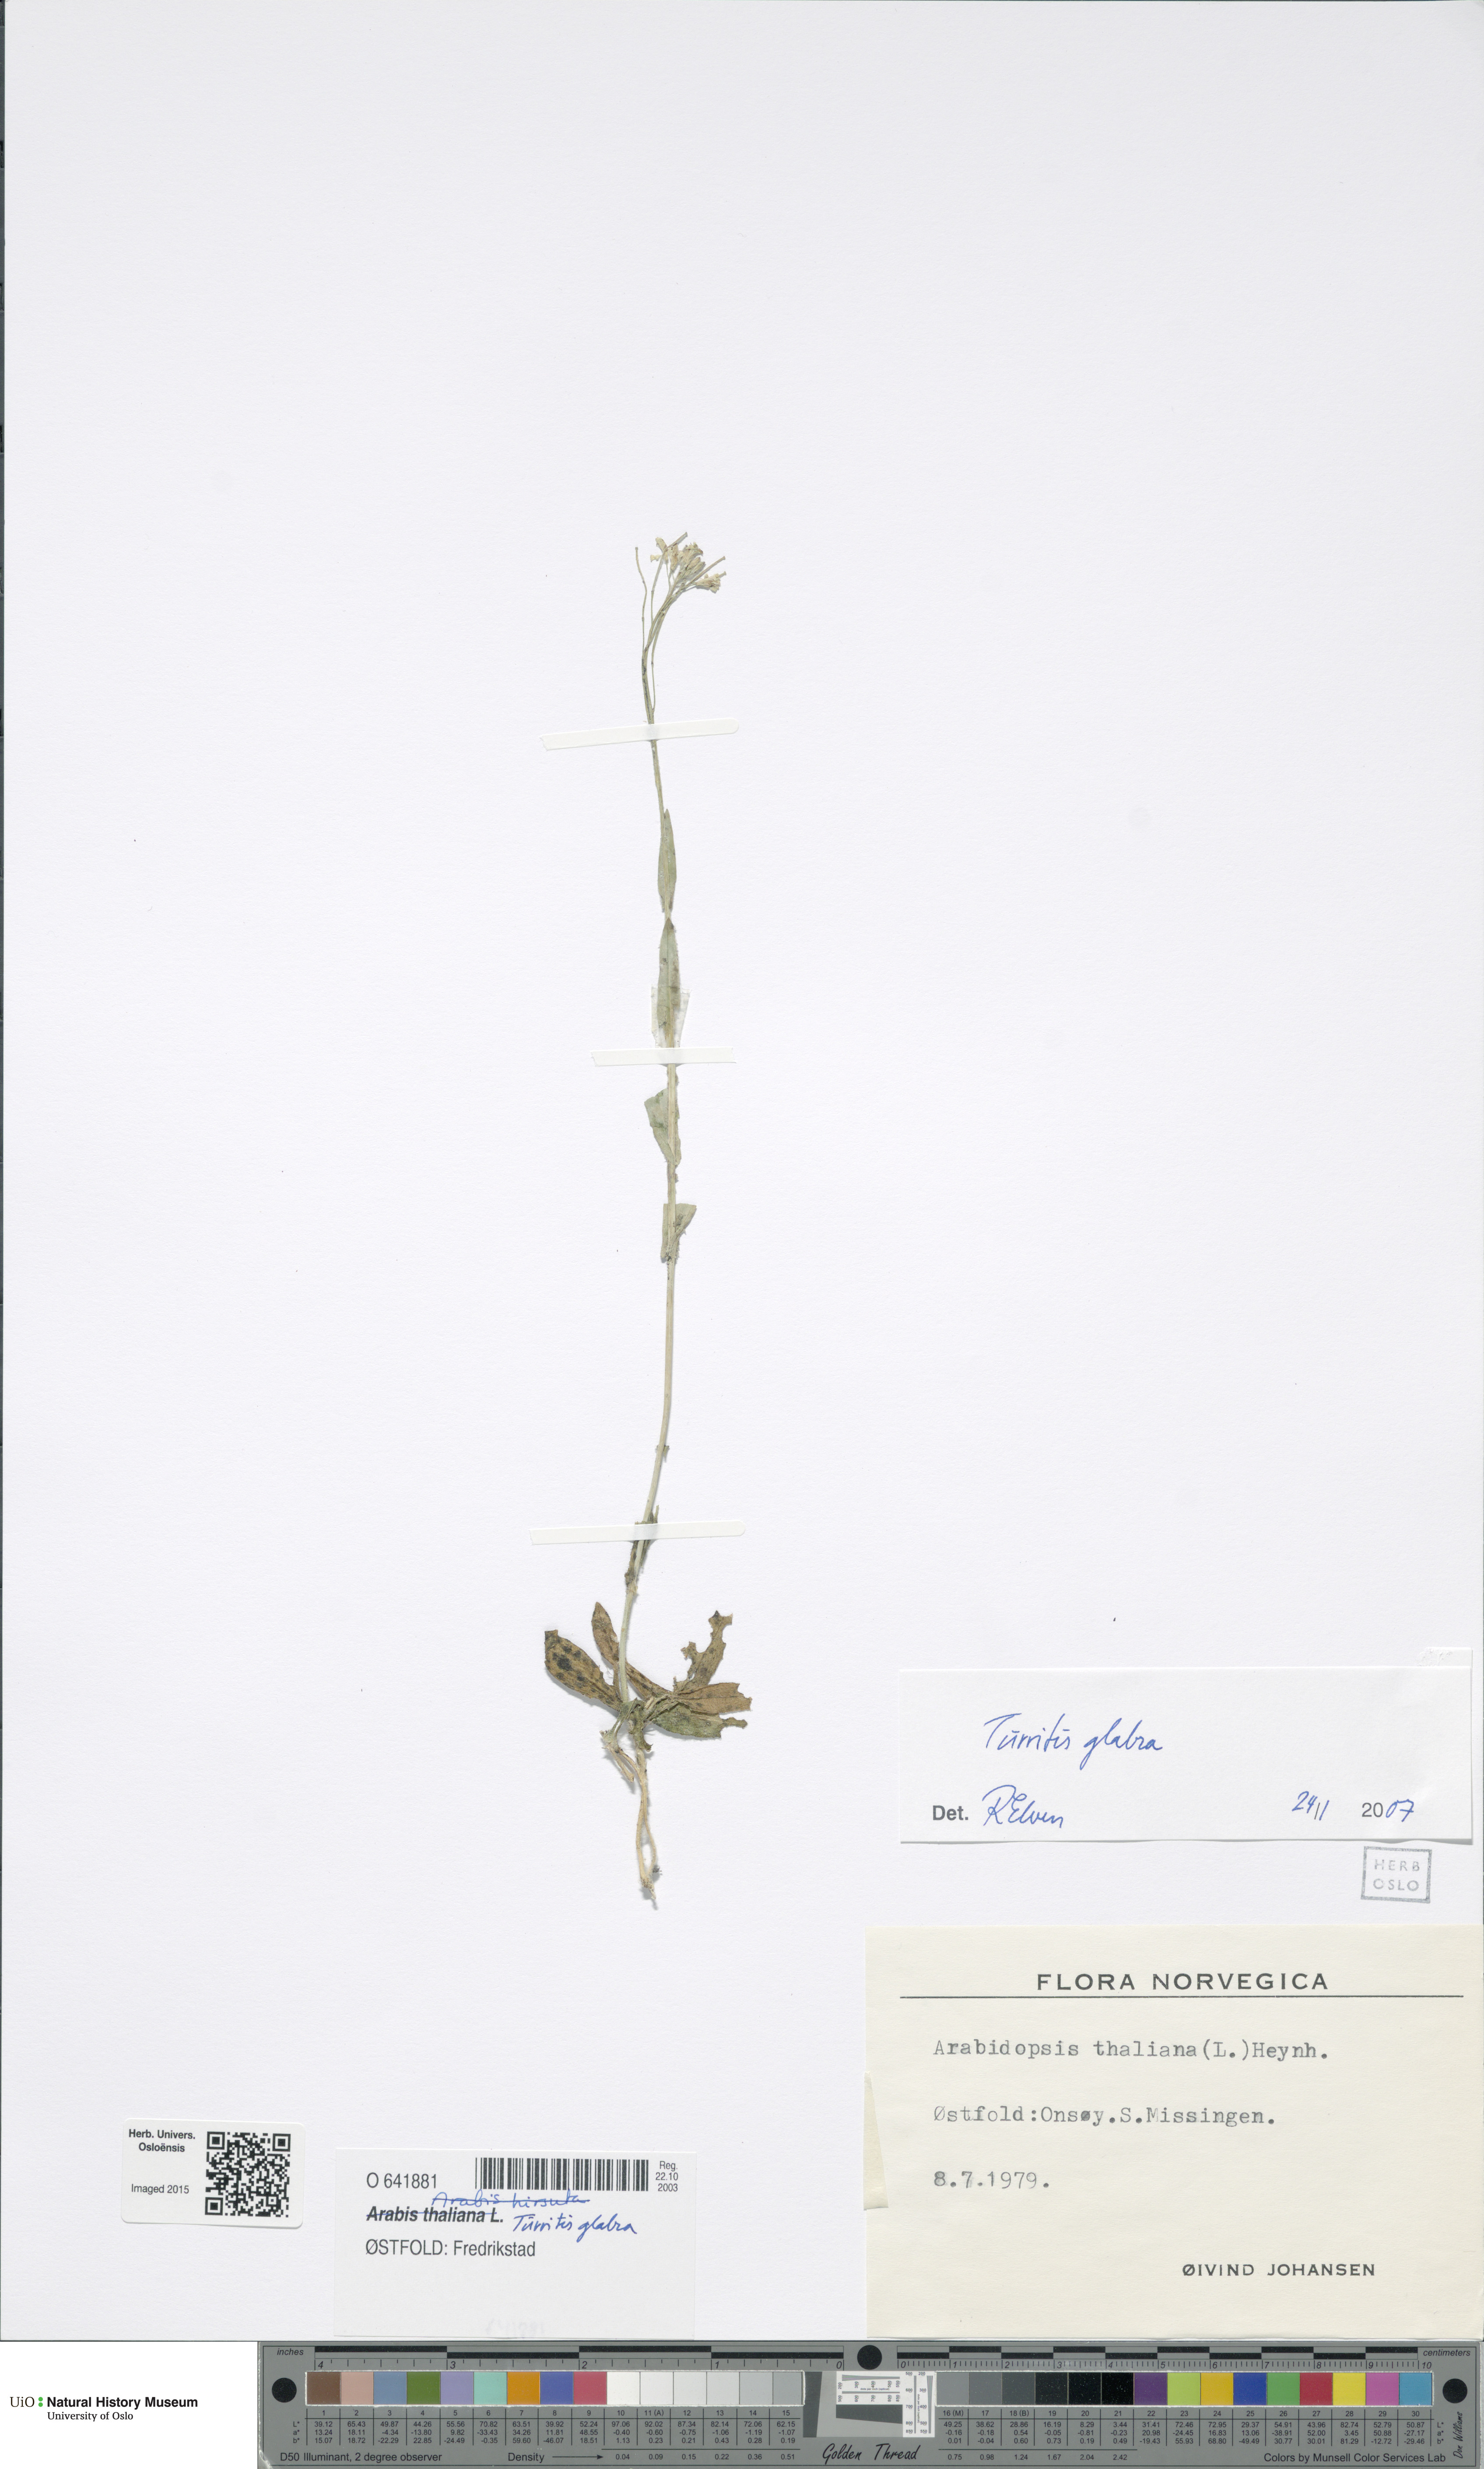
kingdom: Plantae
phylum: Tracheophyta
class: Magnoliopsida
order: Brassicales
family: Brassicaceae
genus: Turritis
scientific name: Turritis glabra
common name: Tower rockcress
